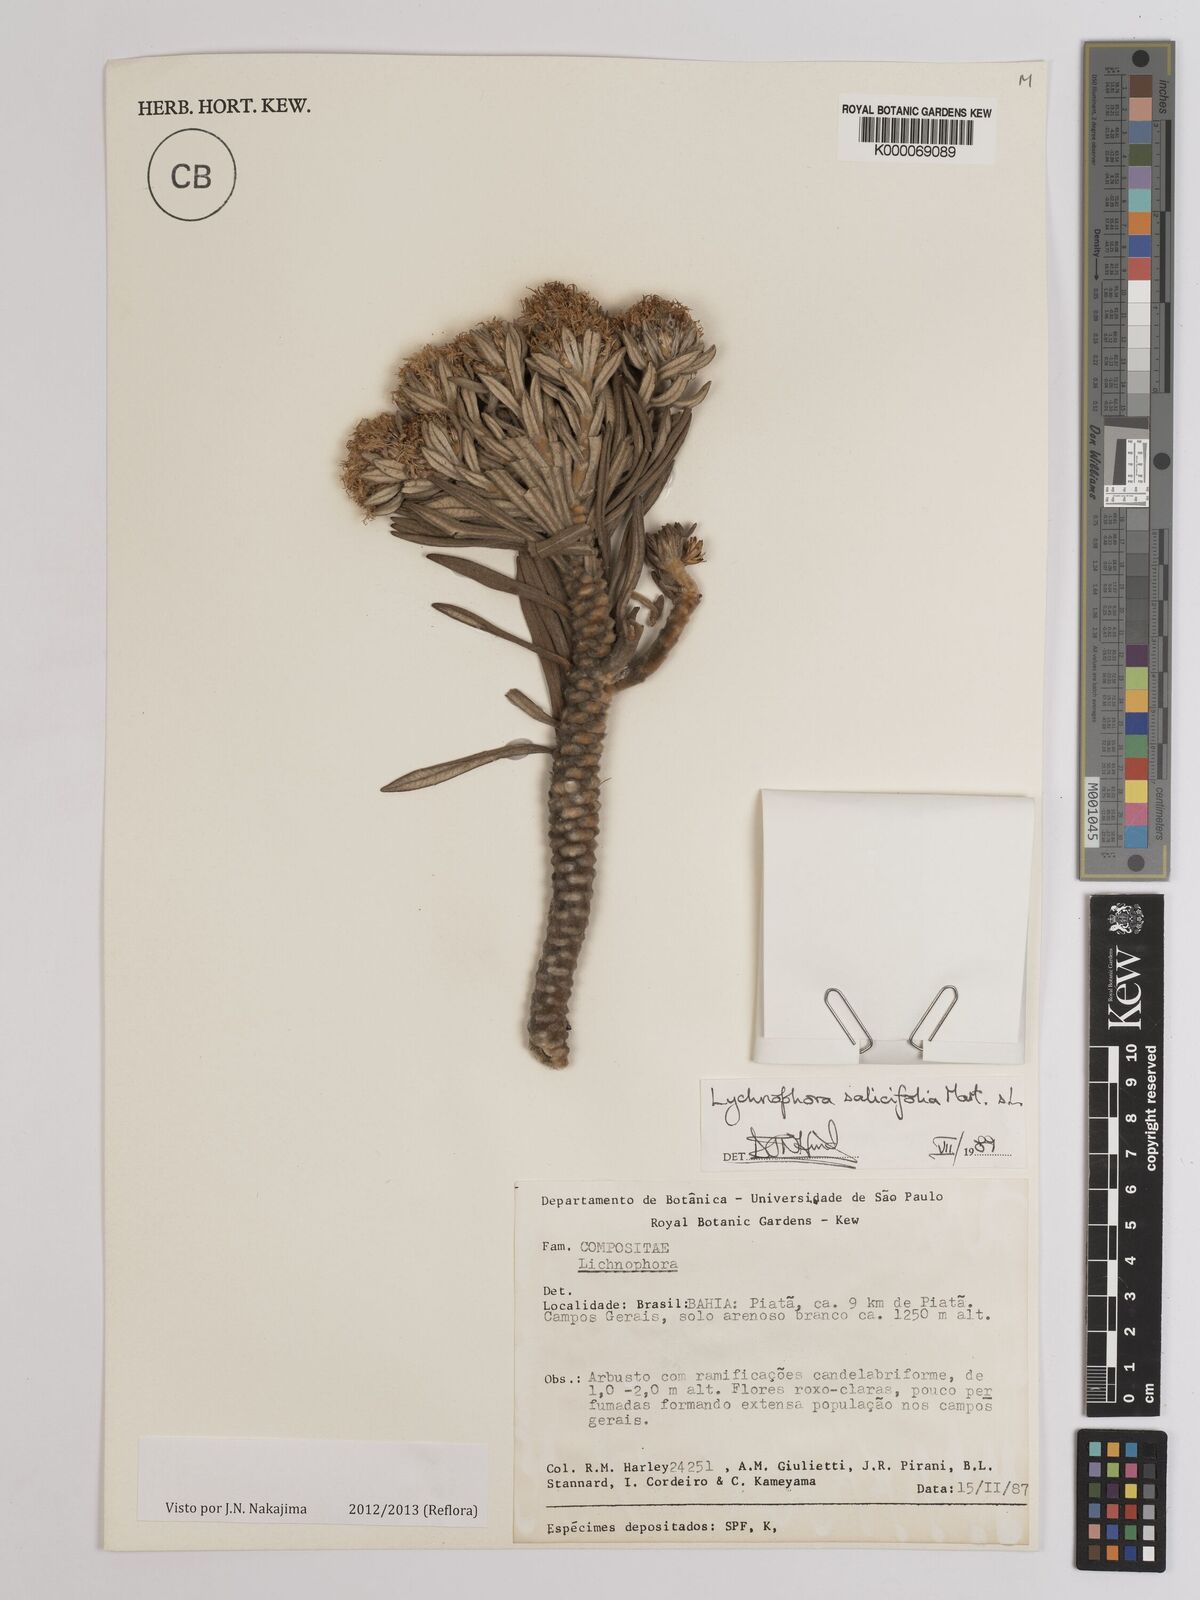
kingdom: Plantae
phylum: Tracheophyta
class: Magnoliopsida
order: Asterales
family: Asteraceae
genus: Lychnophora
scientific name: Lychnophora salicifolia
